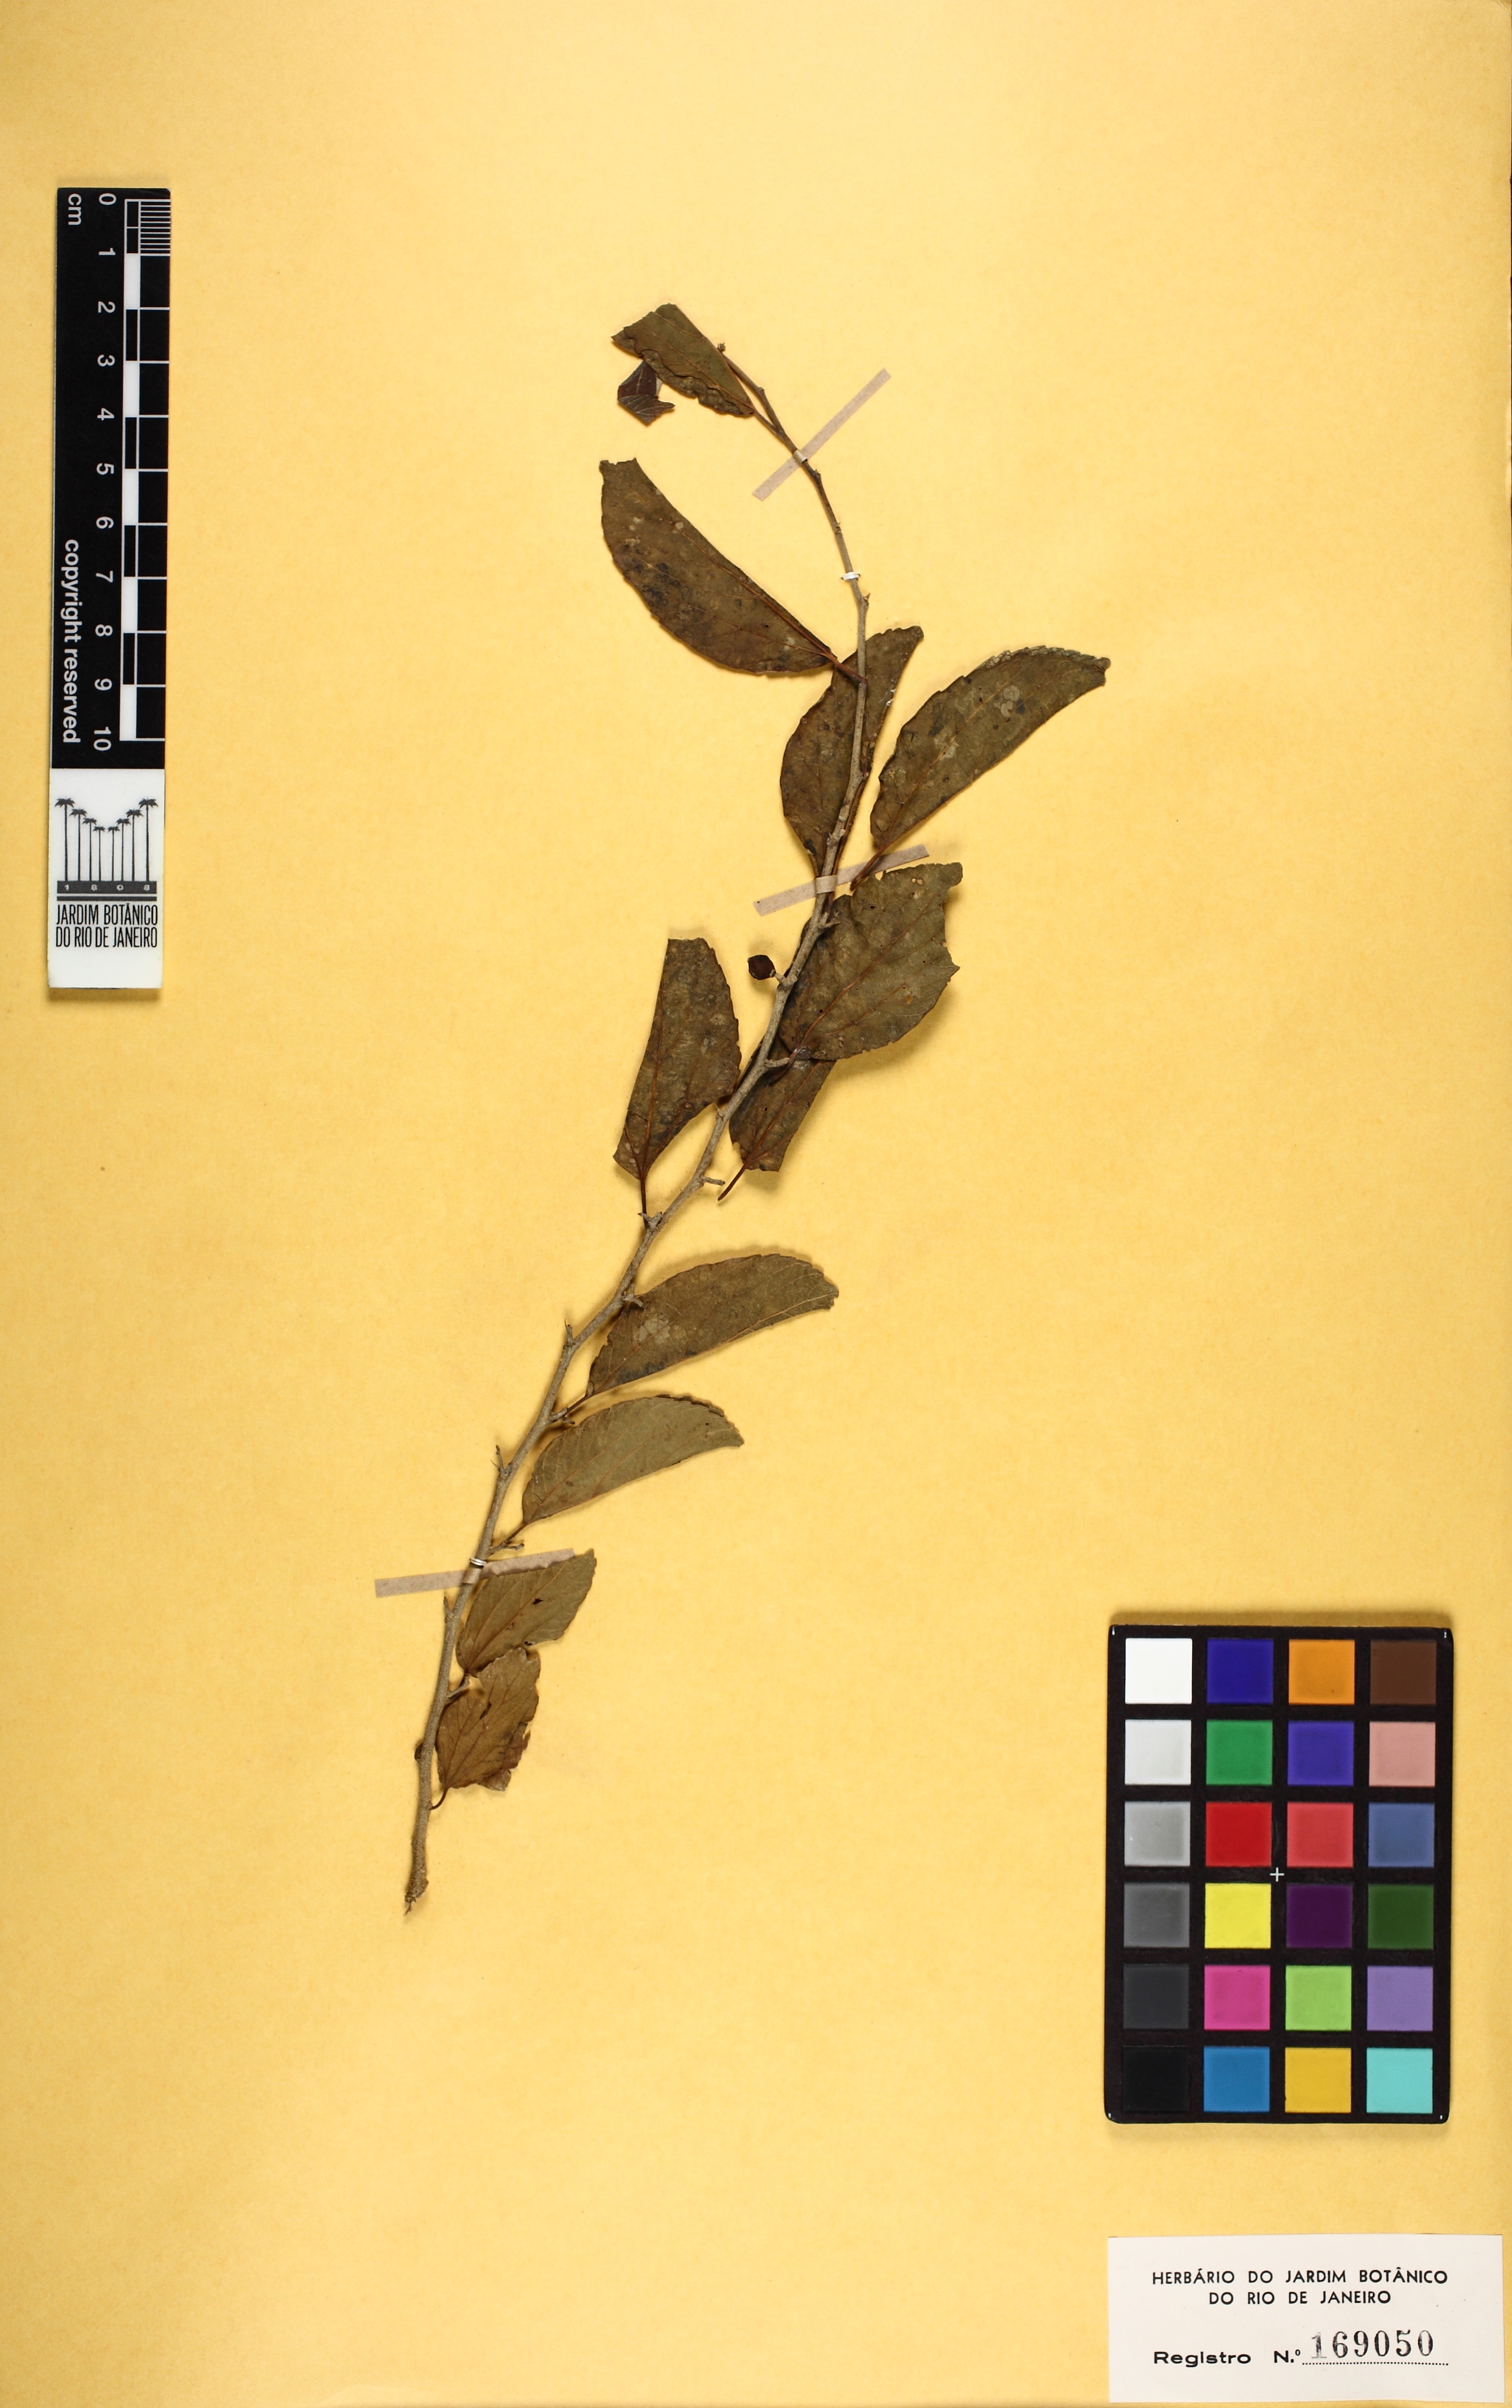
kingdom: Plantae
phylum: Tracheophyta
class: Magnoliopsida
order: Rosales
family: Cannabaceae
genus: Celtis
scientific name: Celtis iguanaea
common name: Iguana hackberry
